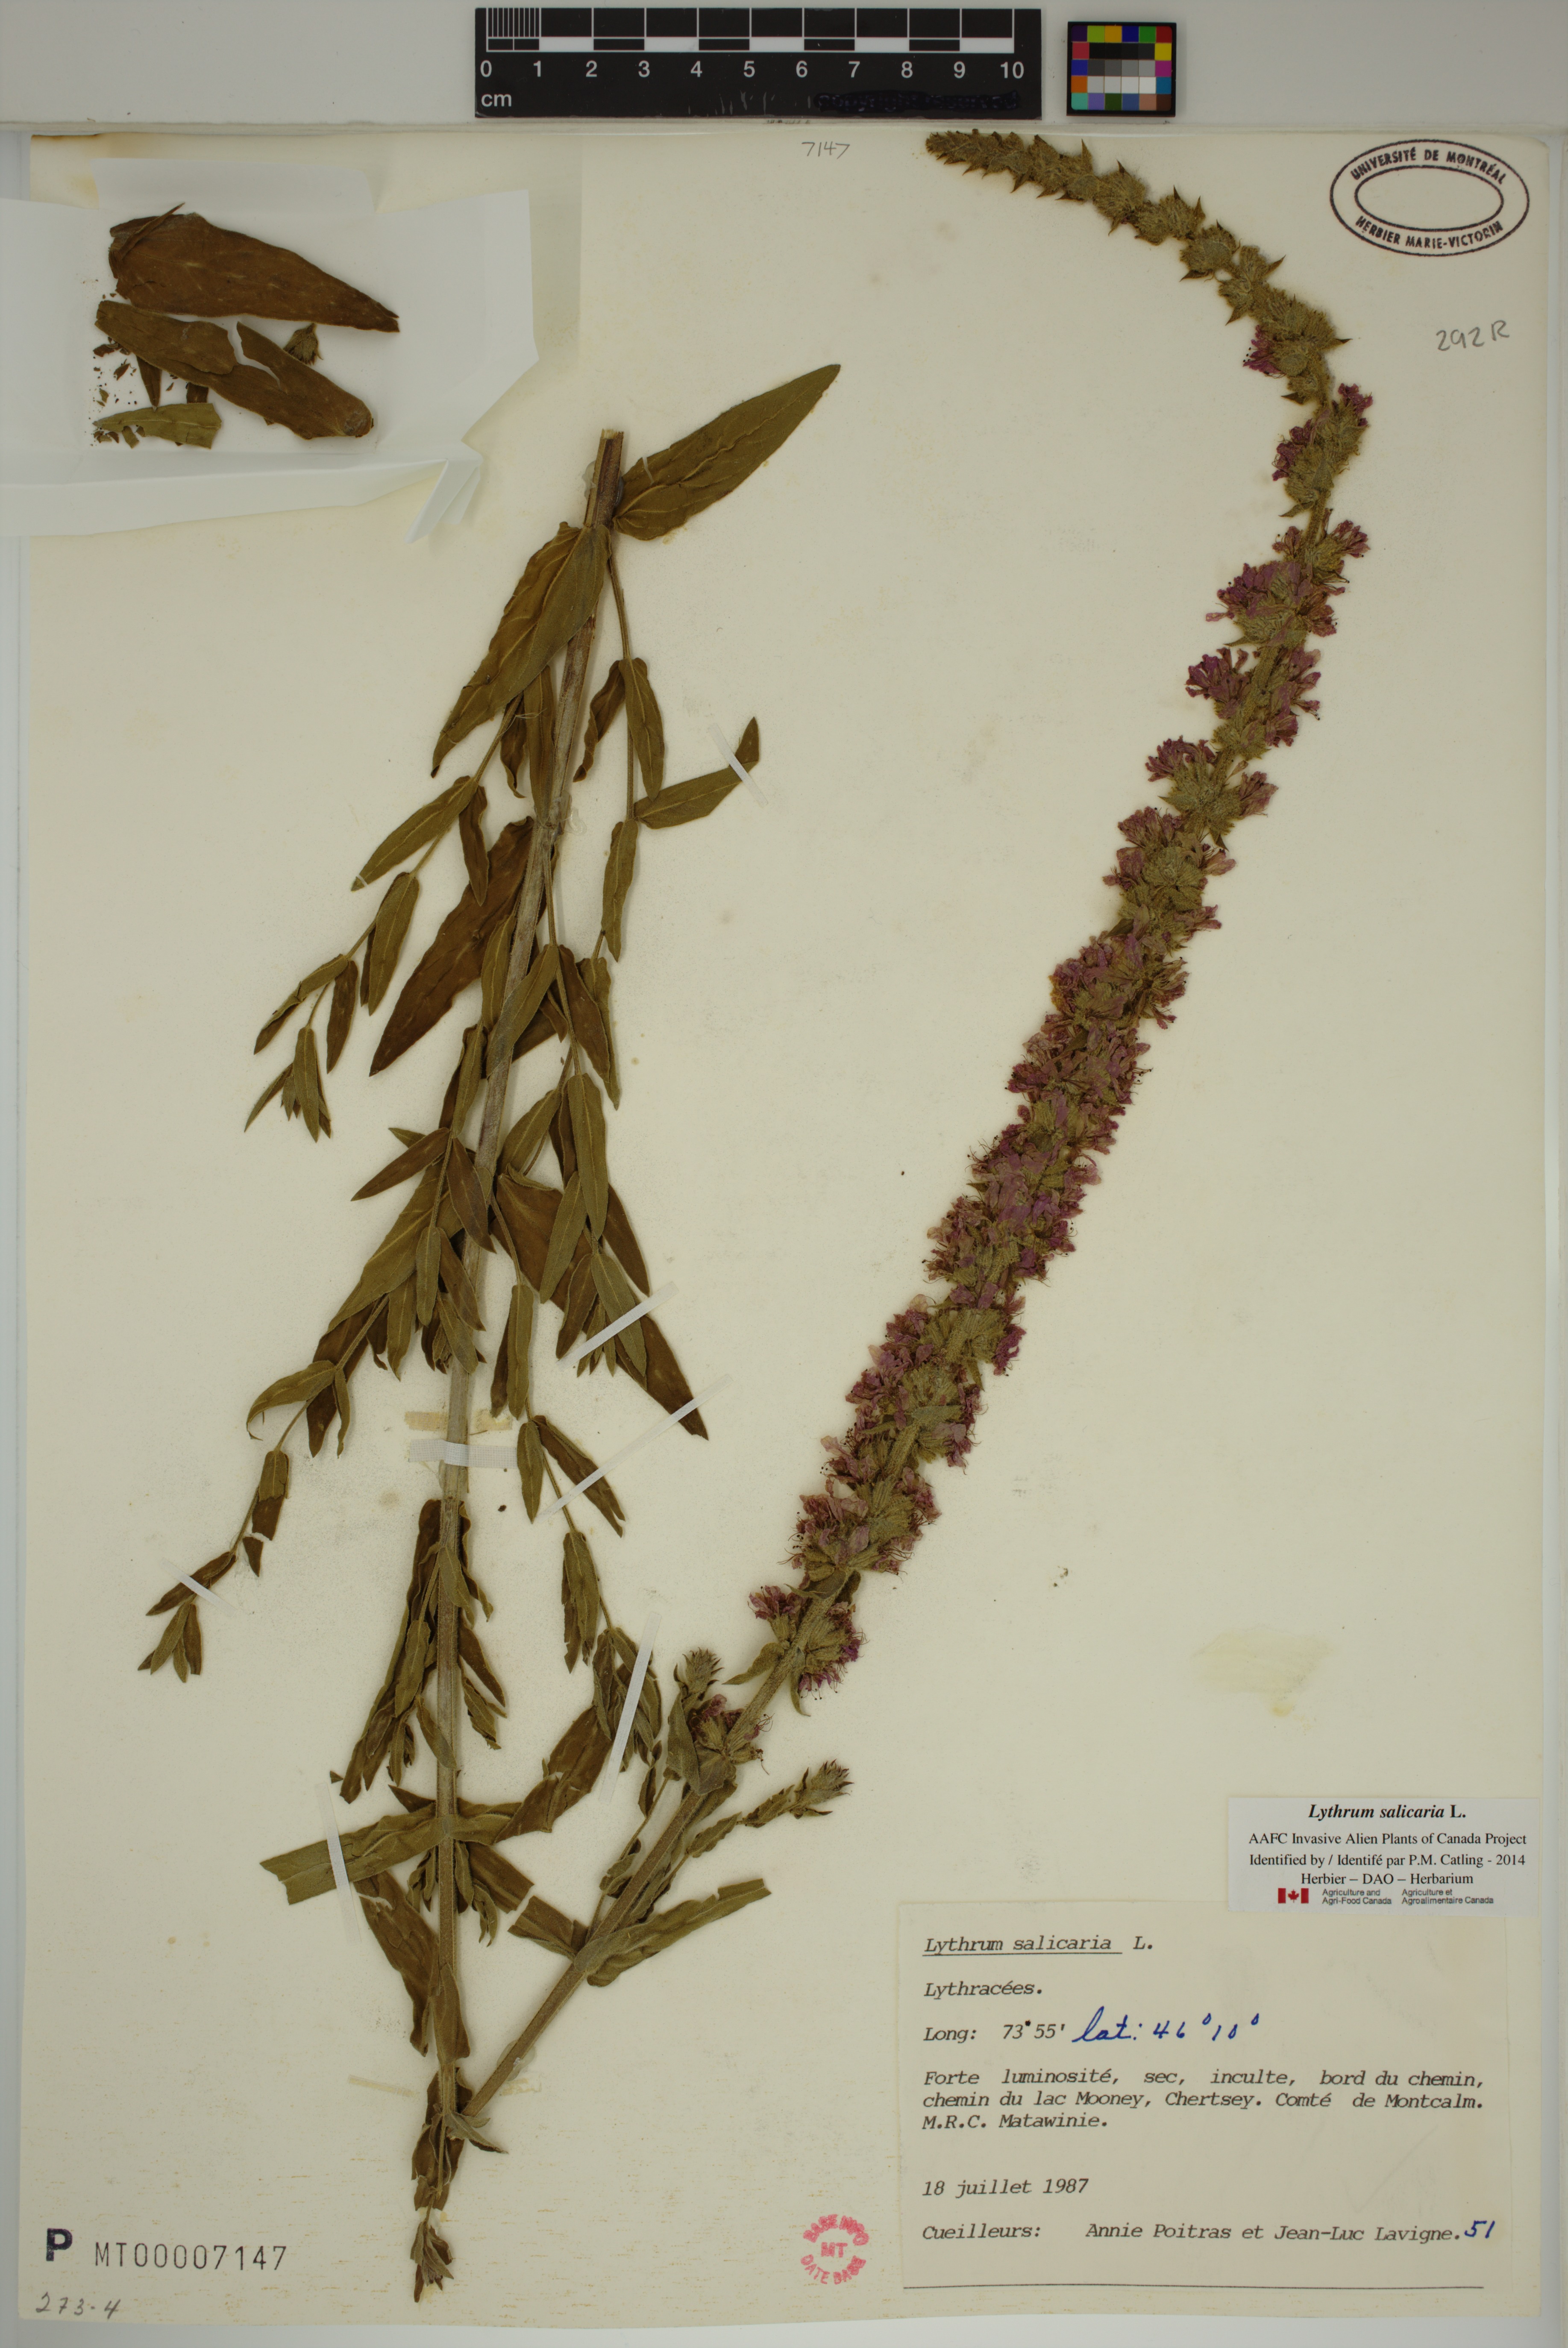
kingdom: Plantae
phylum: Tracheophyta
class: Magnoliopsida
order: Myrtales
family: Lythraceae
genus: Lythrum
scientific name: Lythrum salicaria
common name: Purple loosestrife
